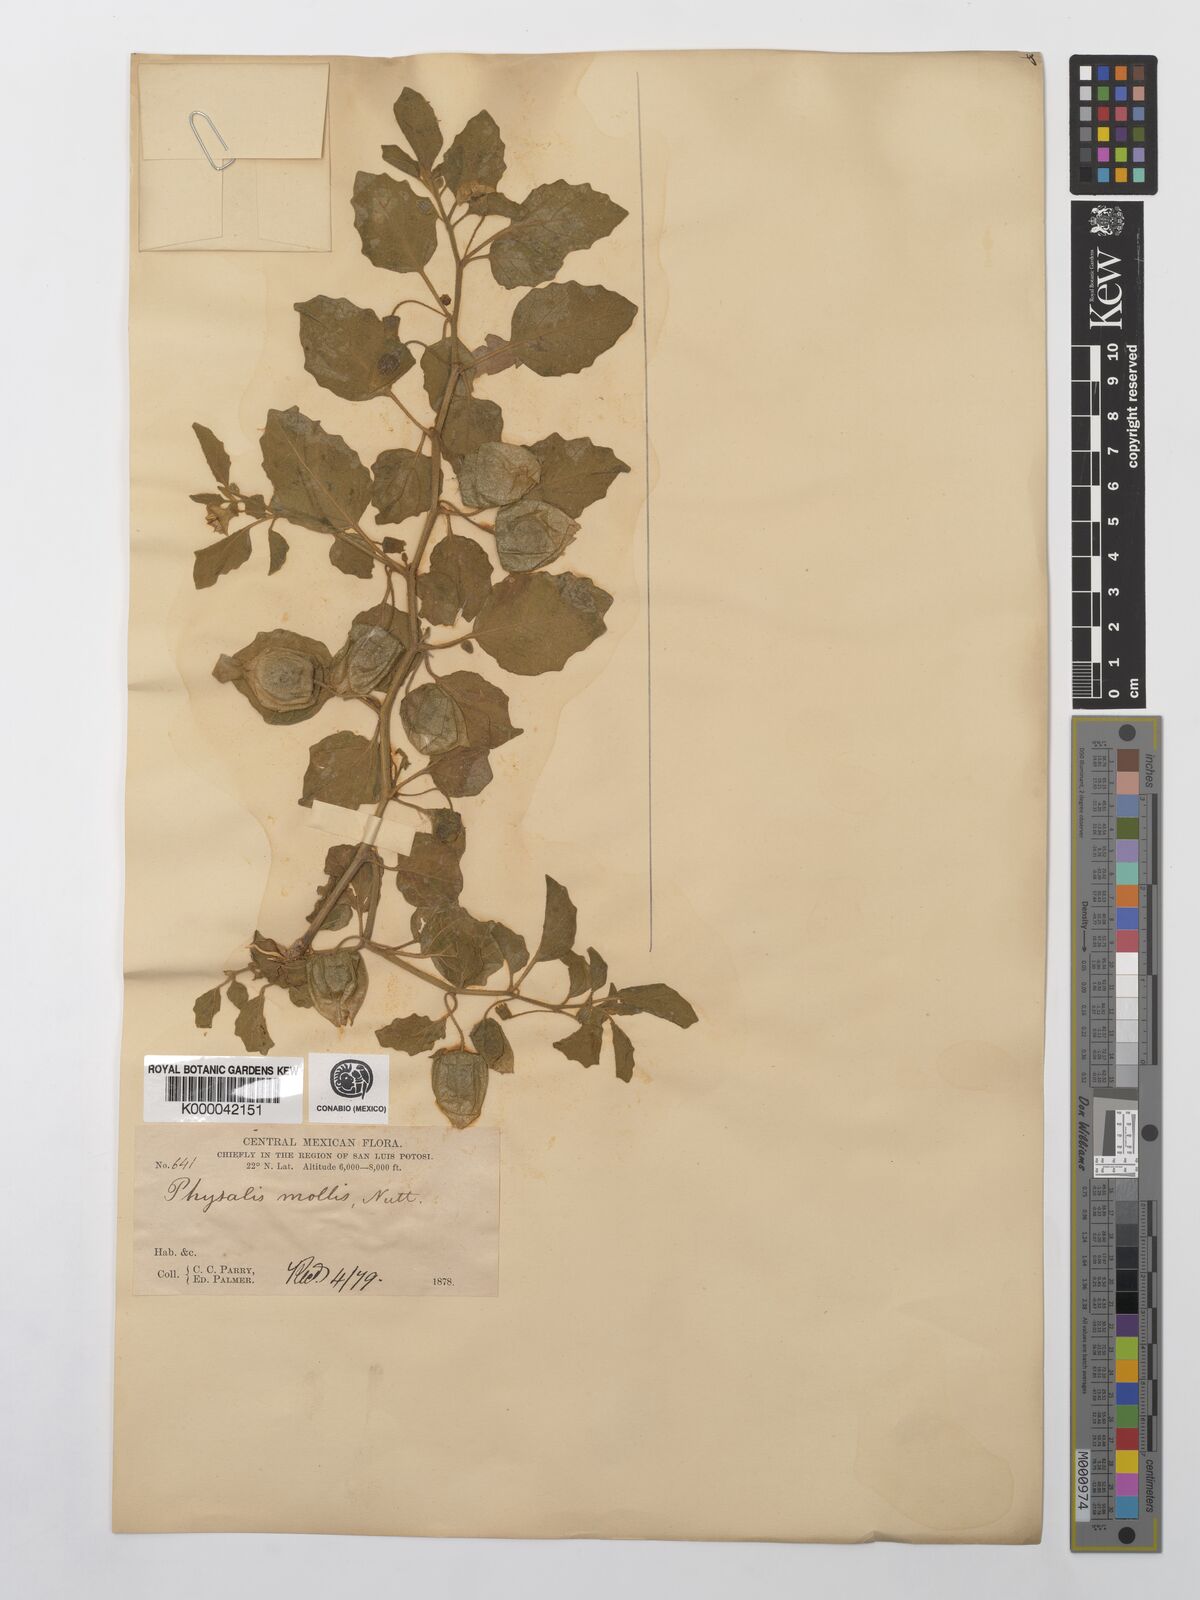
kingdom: Plantae
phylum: Tracheophyta
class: Magnoliopsida
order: Solanales
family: Solanaceae
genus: Physalis
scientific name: Physalis cinerascens
